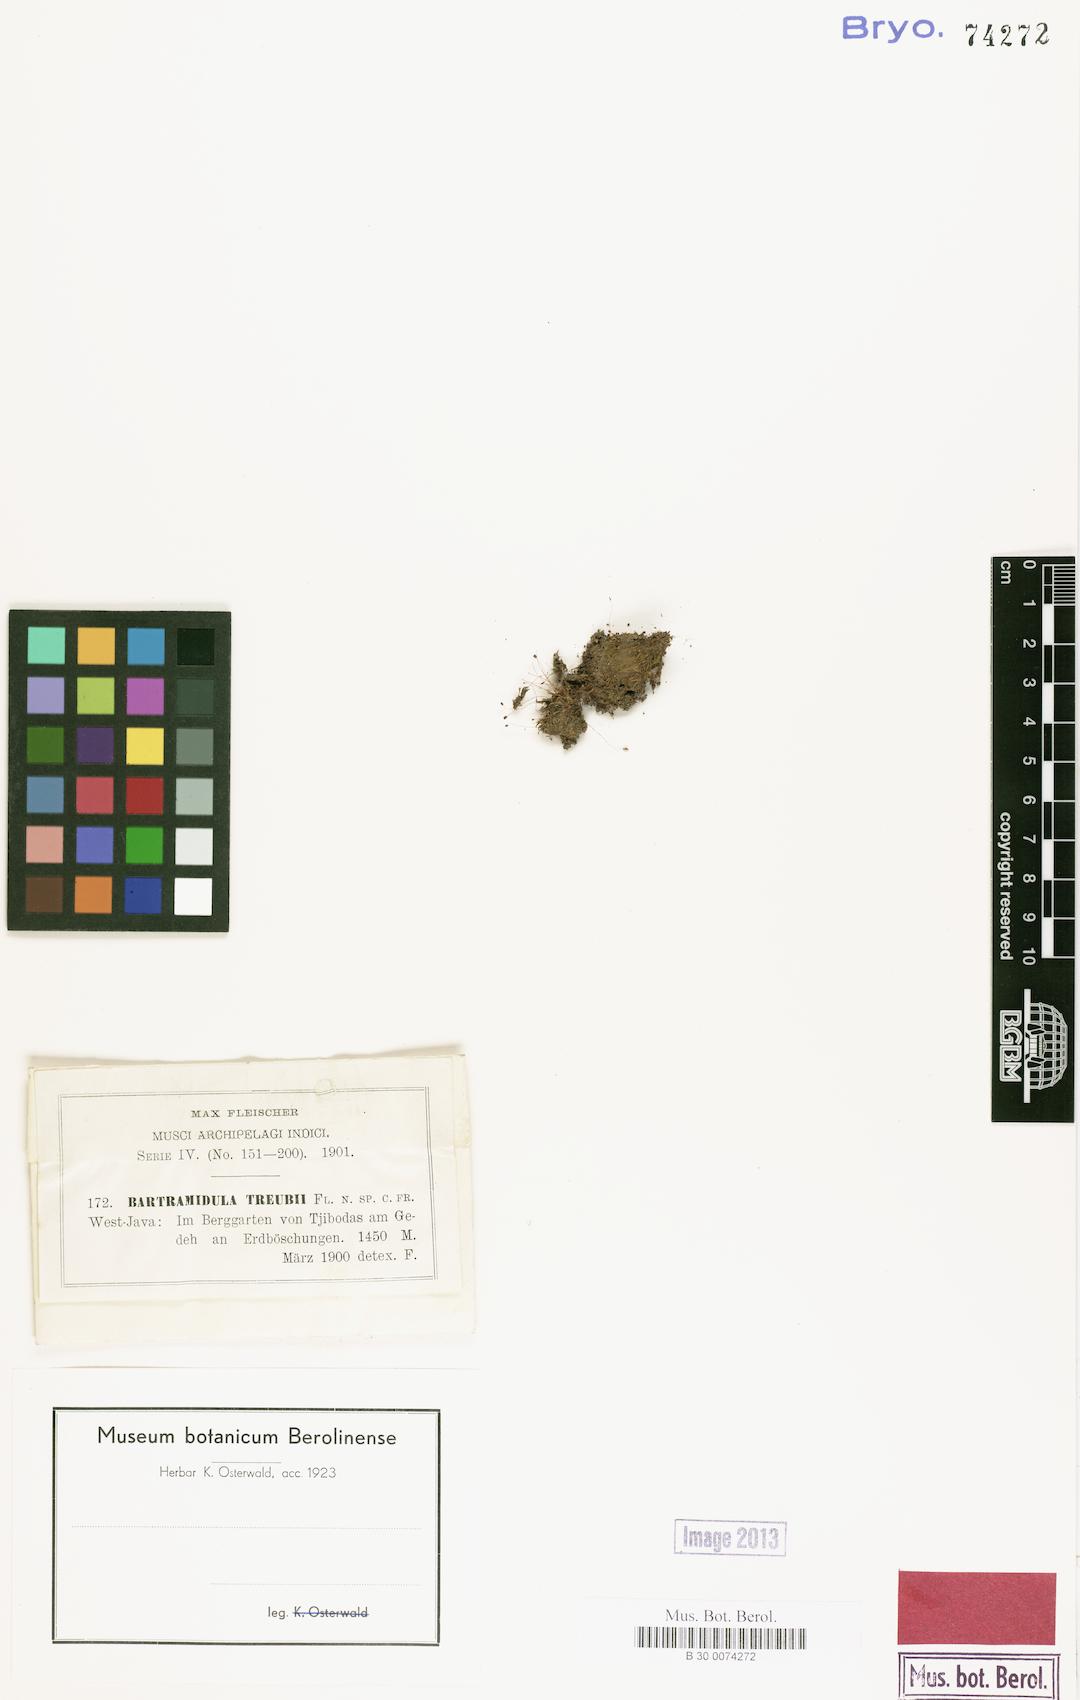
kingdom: Plantae
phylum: Bryophyta
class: Bryopsida
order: Bartramiales
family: Bartramiaceae
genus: Philonotis
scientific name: Philonotis calomicra
